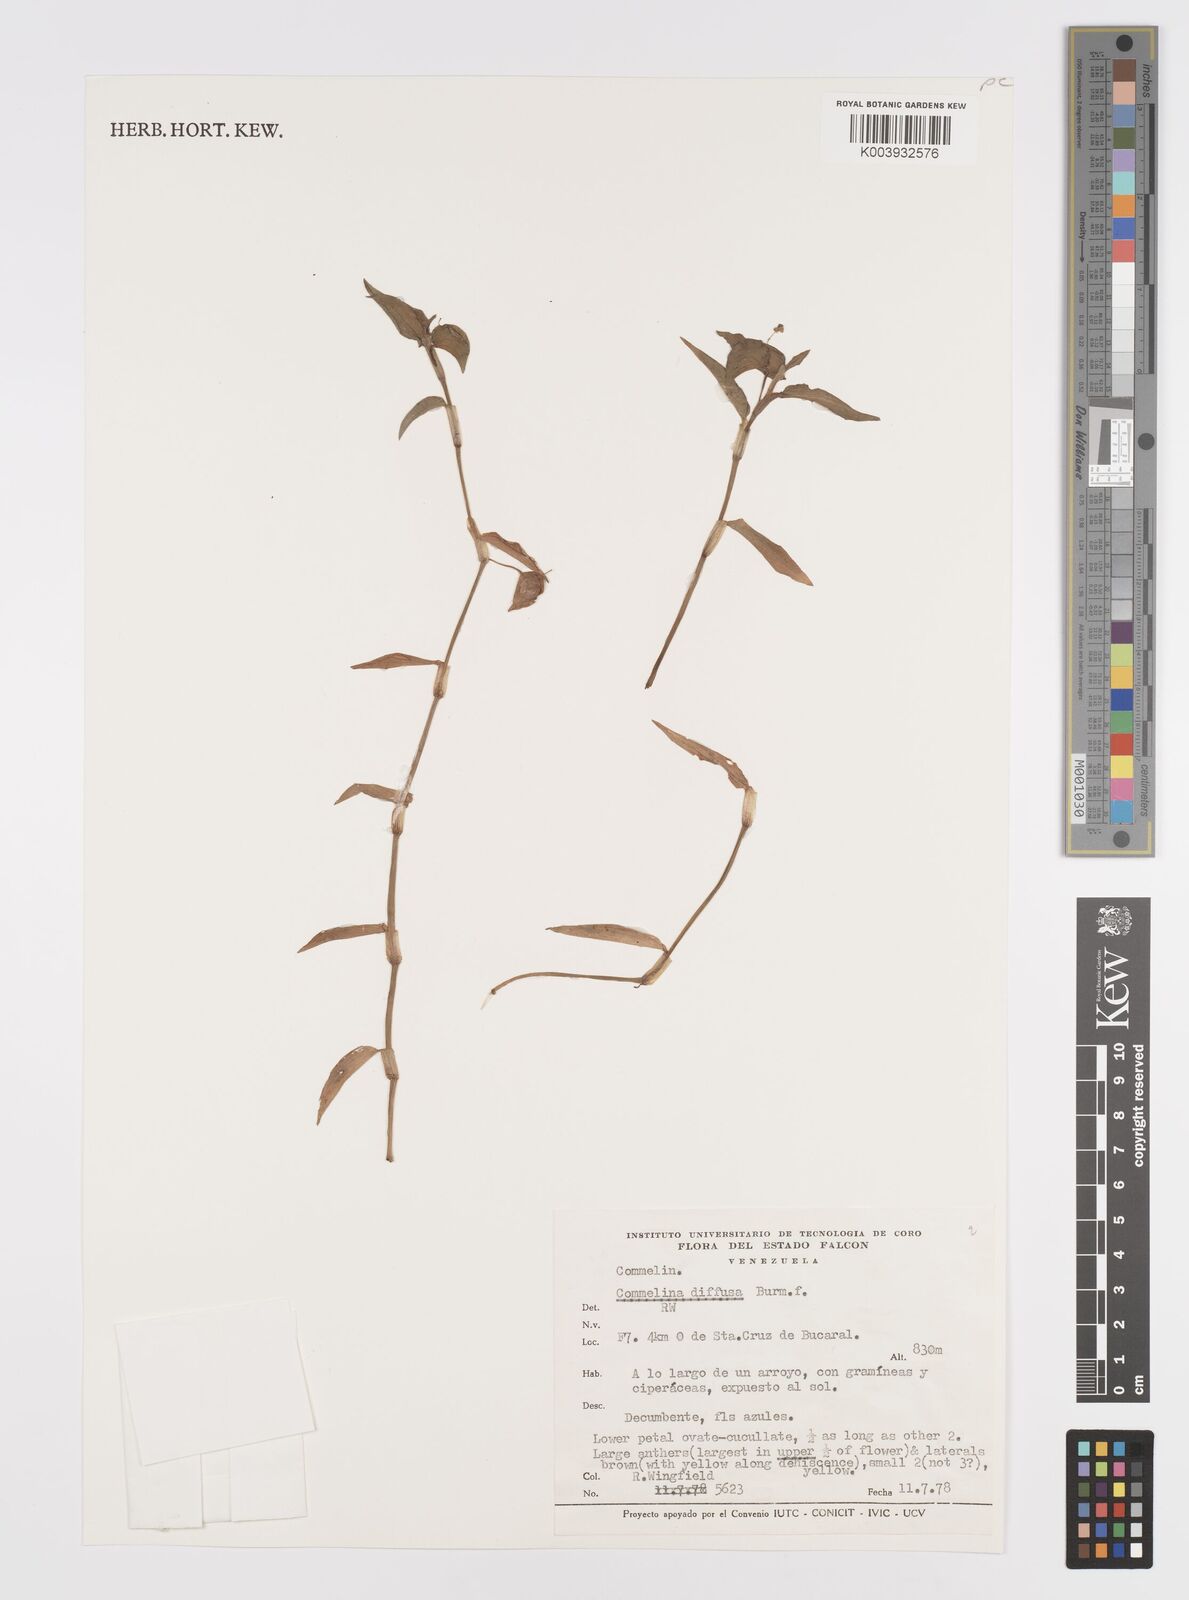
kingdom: Plantae
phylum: Tracheophyta
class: Liliopsida
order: Commelinales
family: Commelinaceae
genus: Commelina
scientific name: Commelina diffusa
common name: Climbing dayflower
